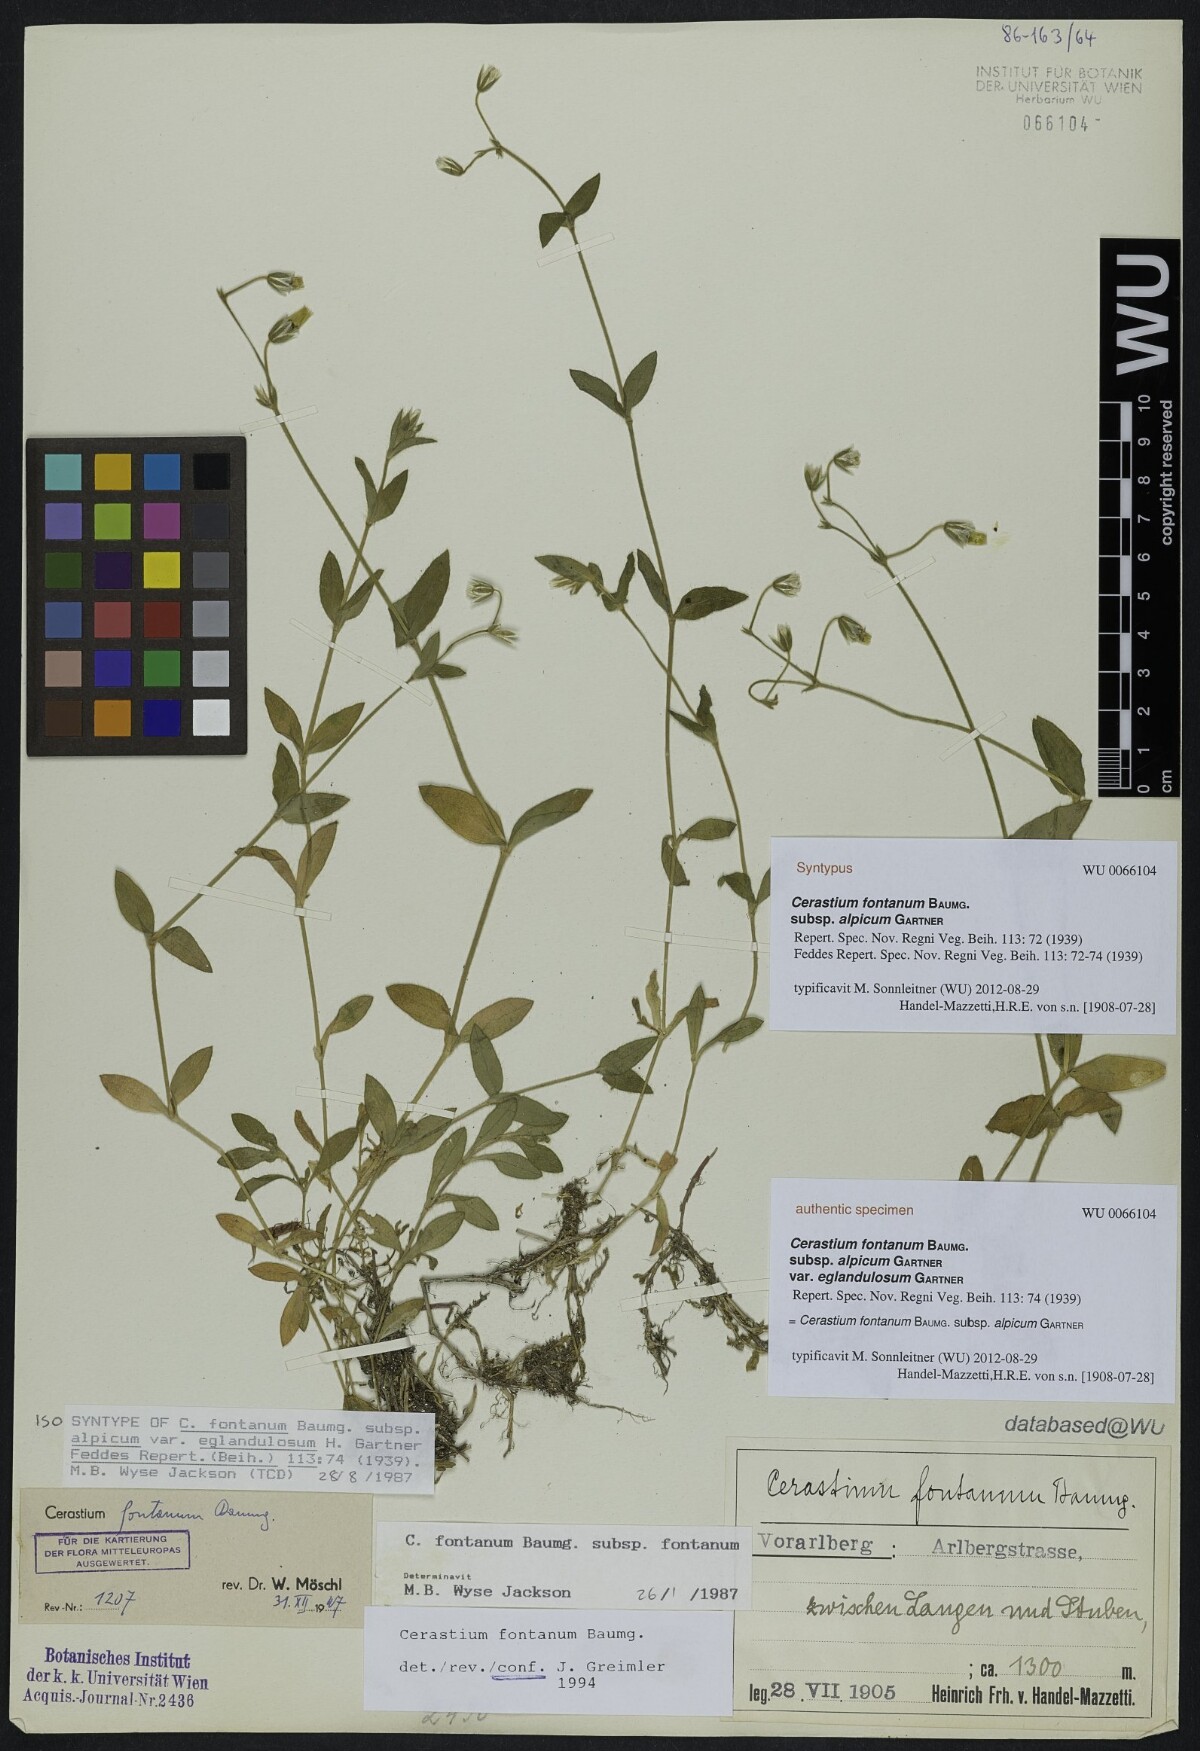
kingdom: Plantae
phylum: Tracheophyta
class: Magnoliopsida
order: Caryophyllales
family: Caryophyllaceae
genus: Cerastium
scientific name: Cerastium fontanum
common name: Common mouse-ear
